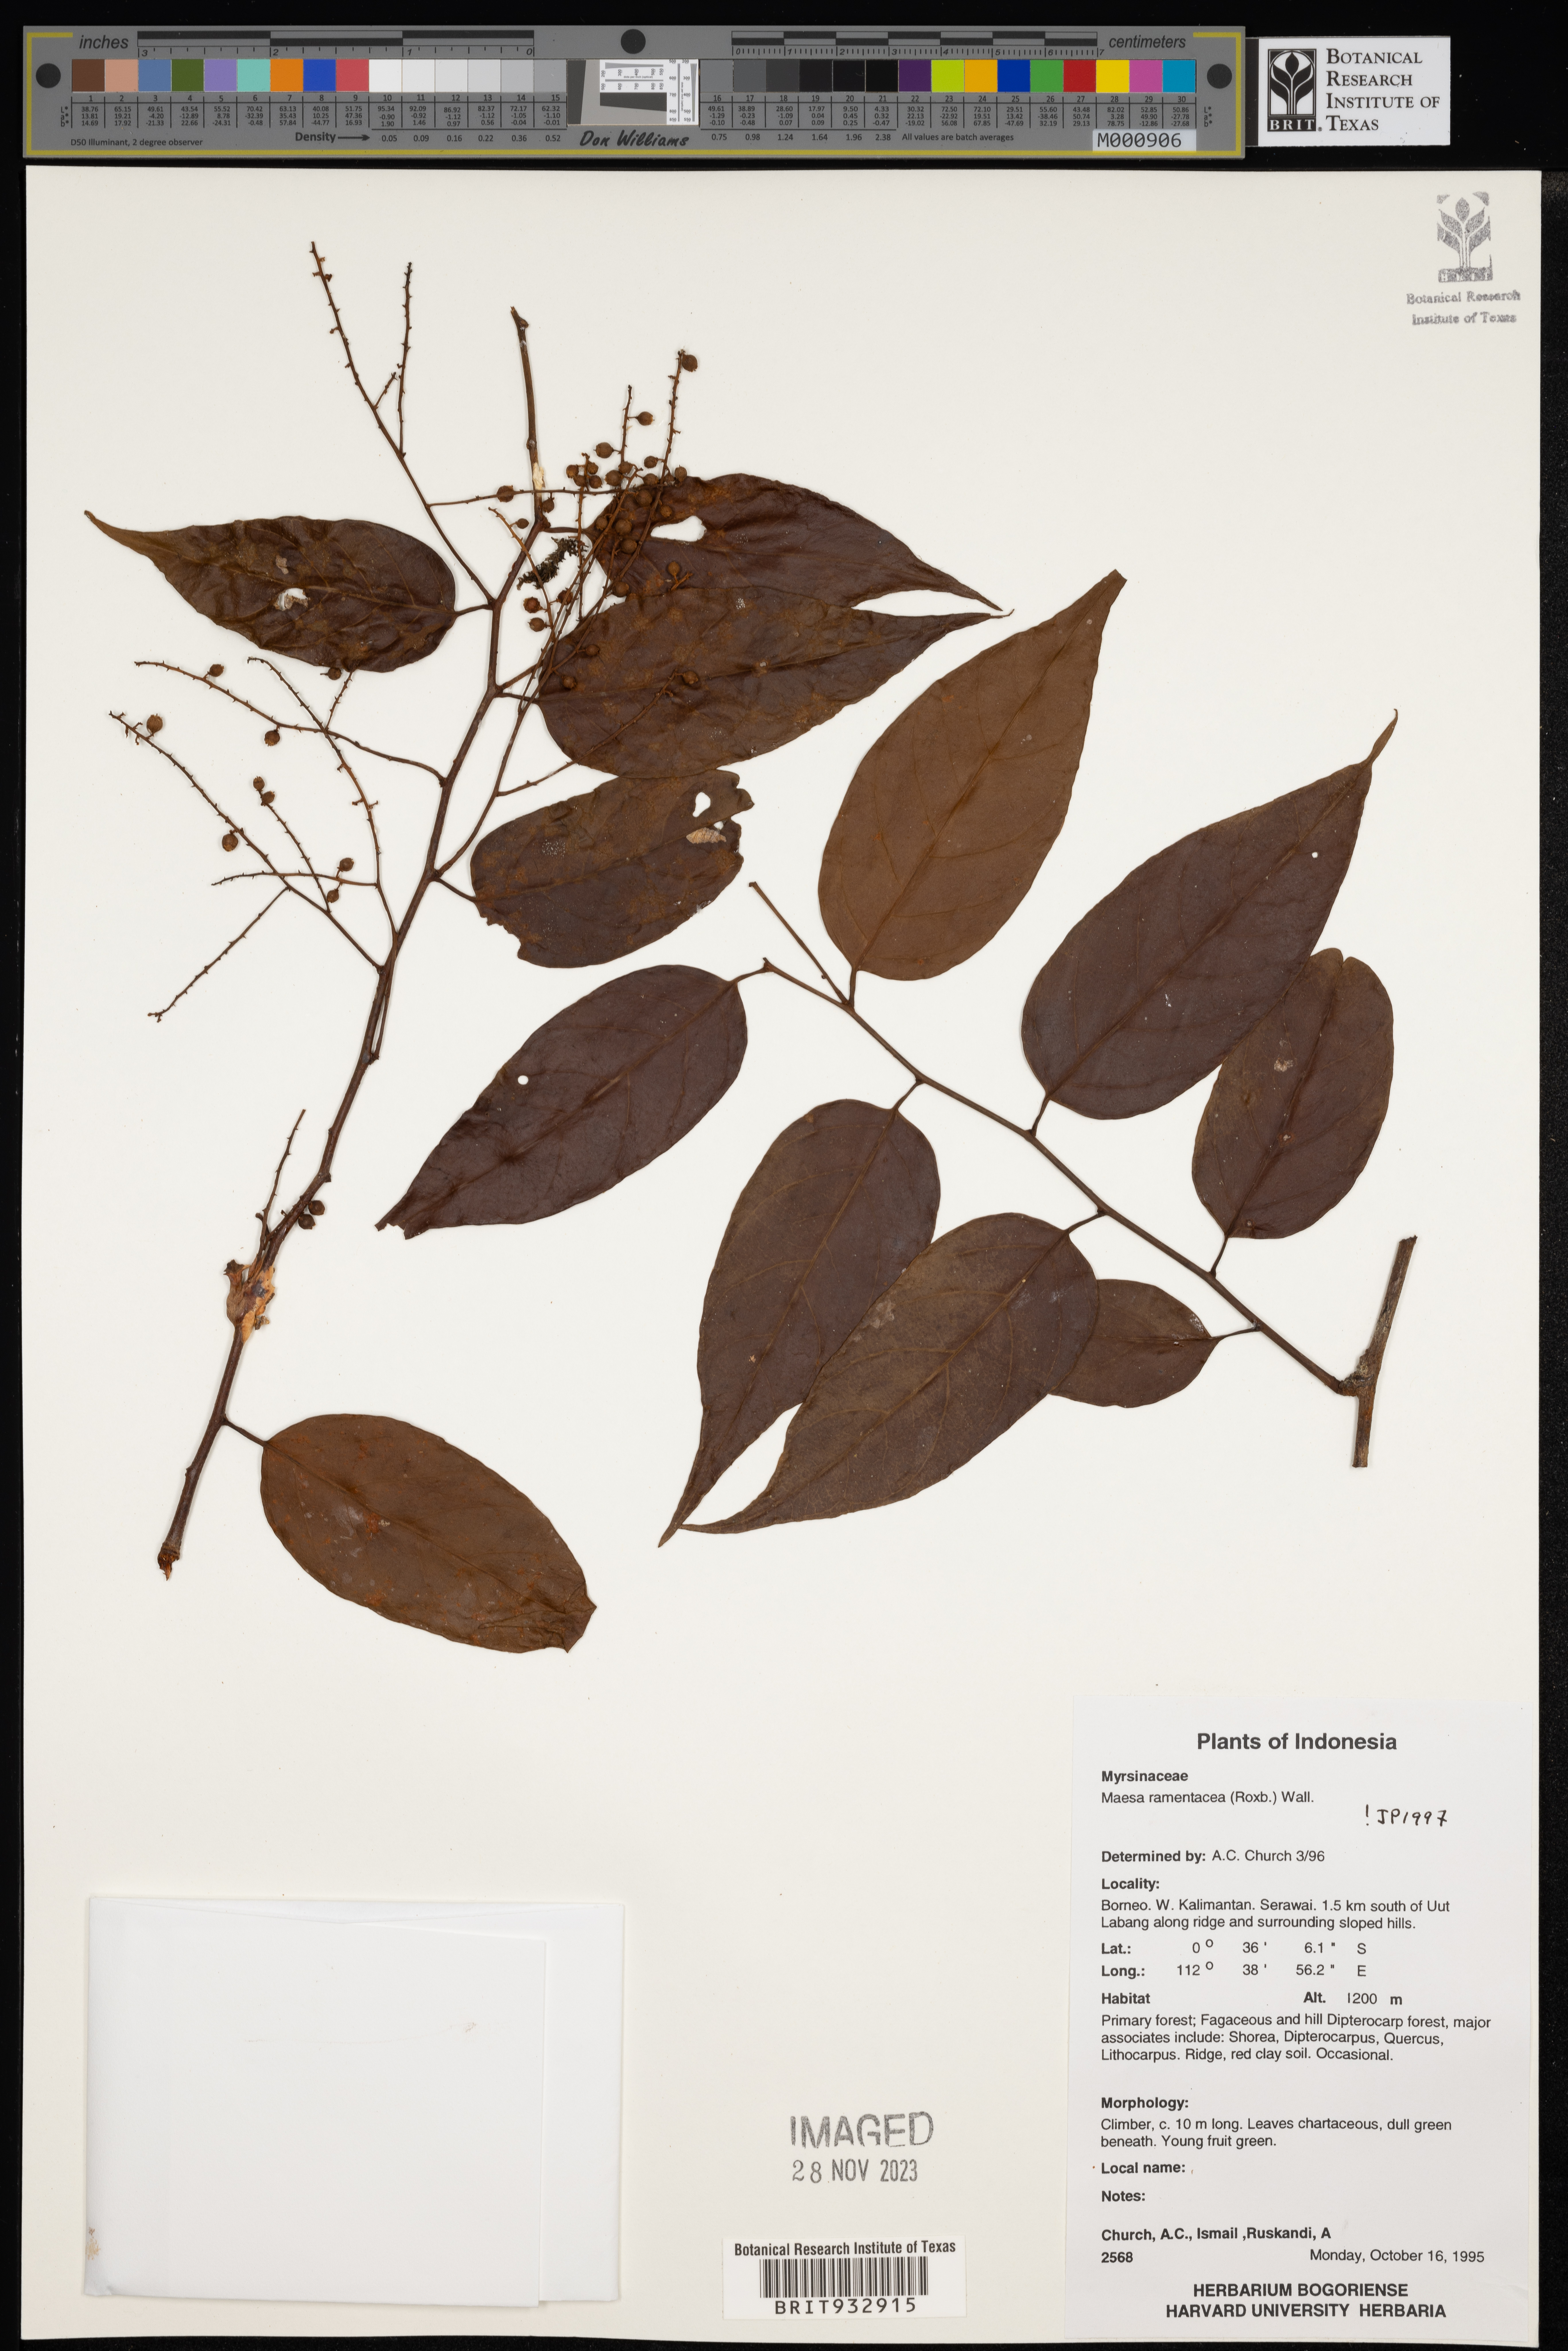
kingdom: Plantae
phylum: Tracheophyta
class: Magnoliopsida
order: Ericales
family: Primulaceae
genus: Maesa
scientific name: Maesa
